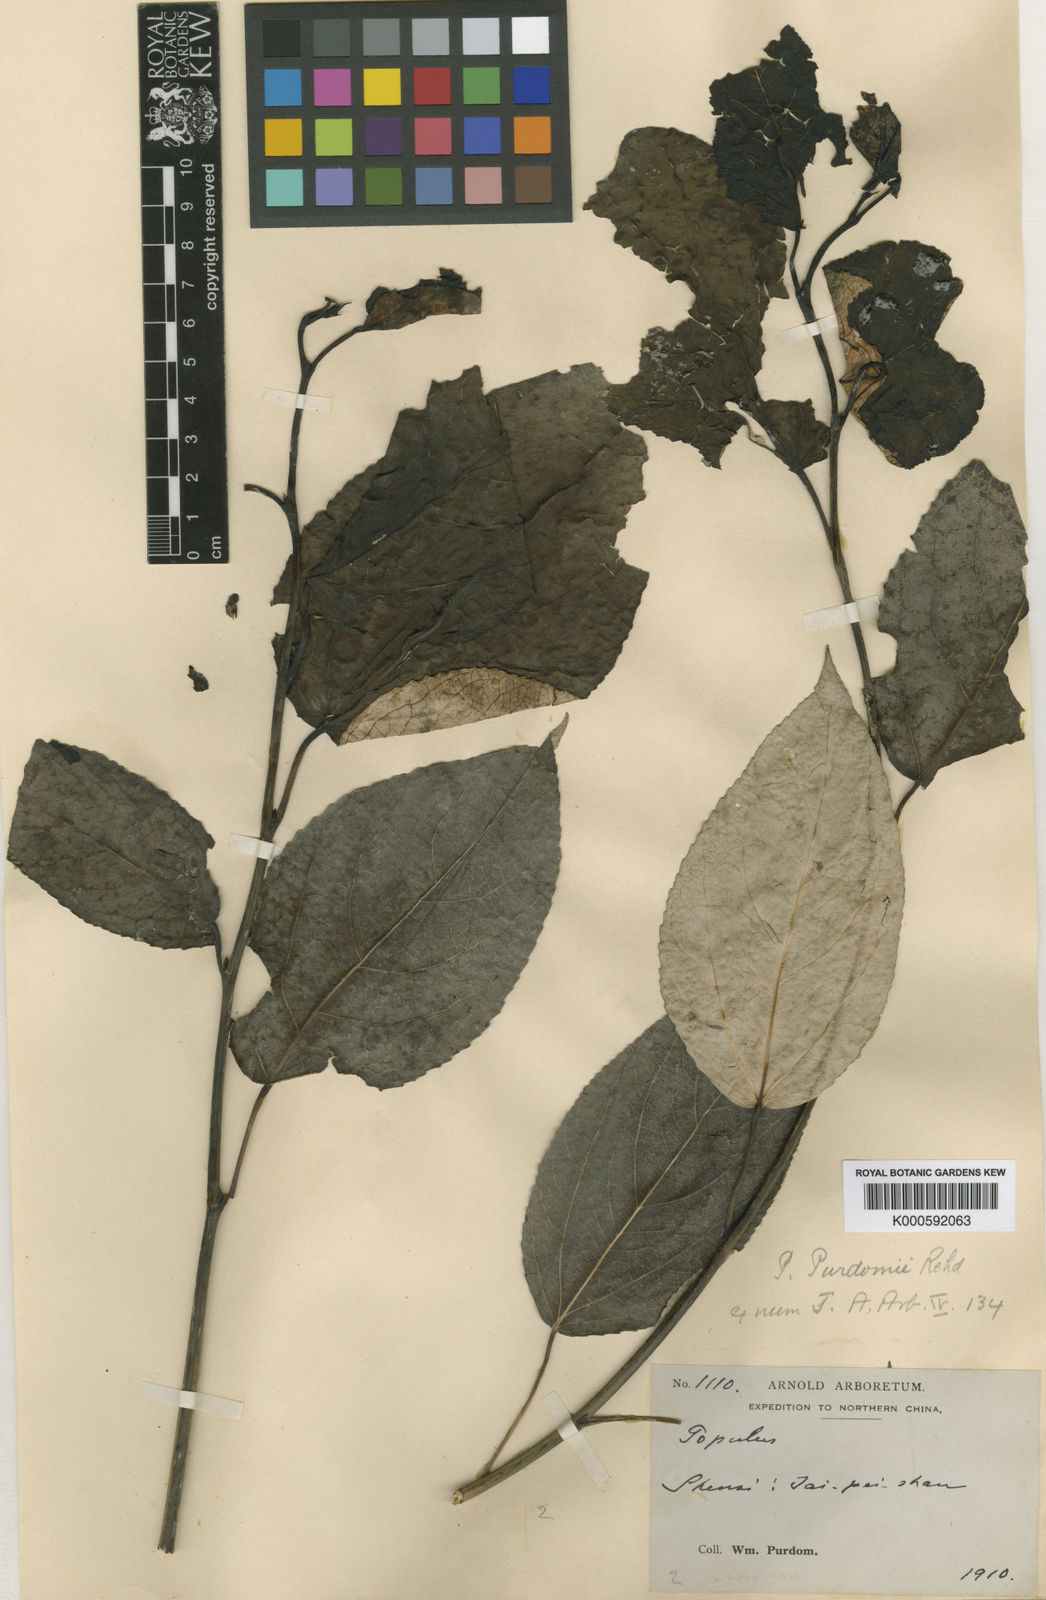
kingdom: Plantae
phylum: Tracheophyta
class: Magnoliopsida
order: Malpighiales
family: Salicaceae
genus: Populus
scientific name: Populus ciliata
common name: Himalayan poplar
